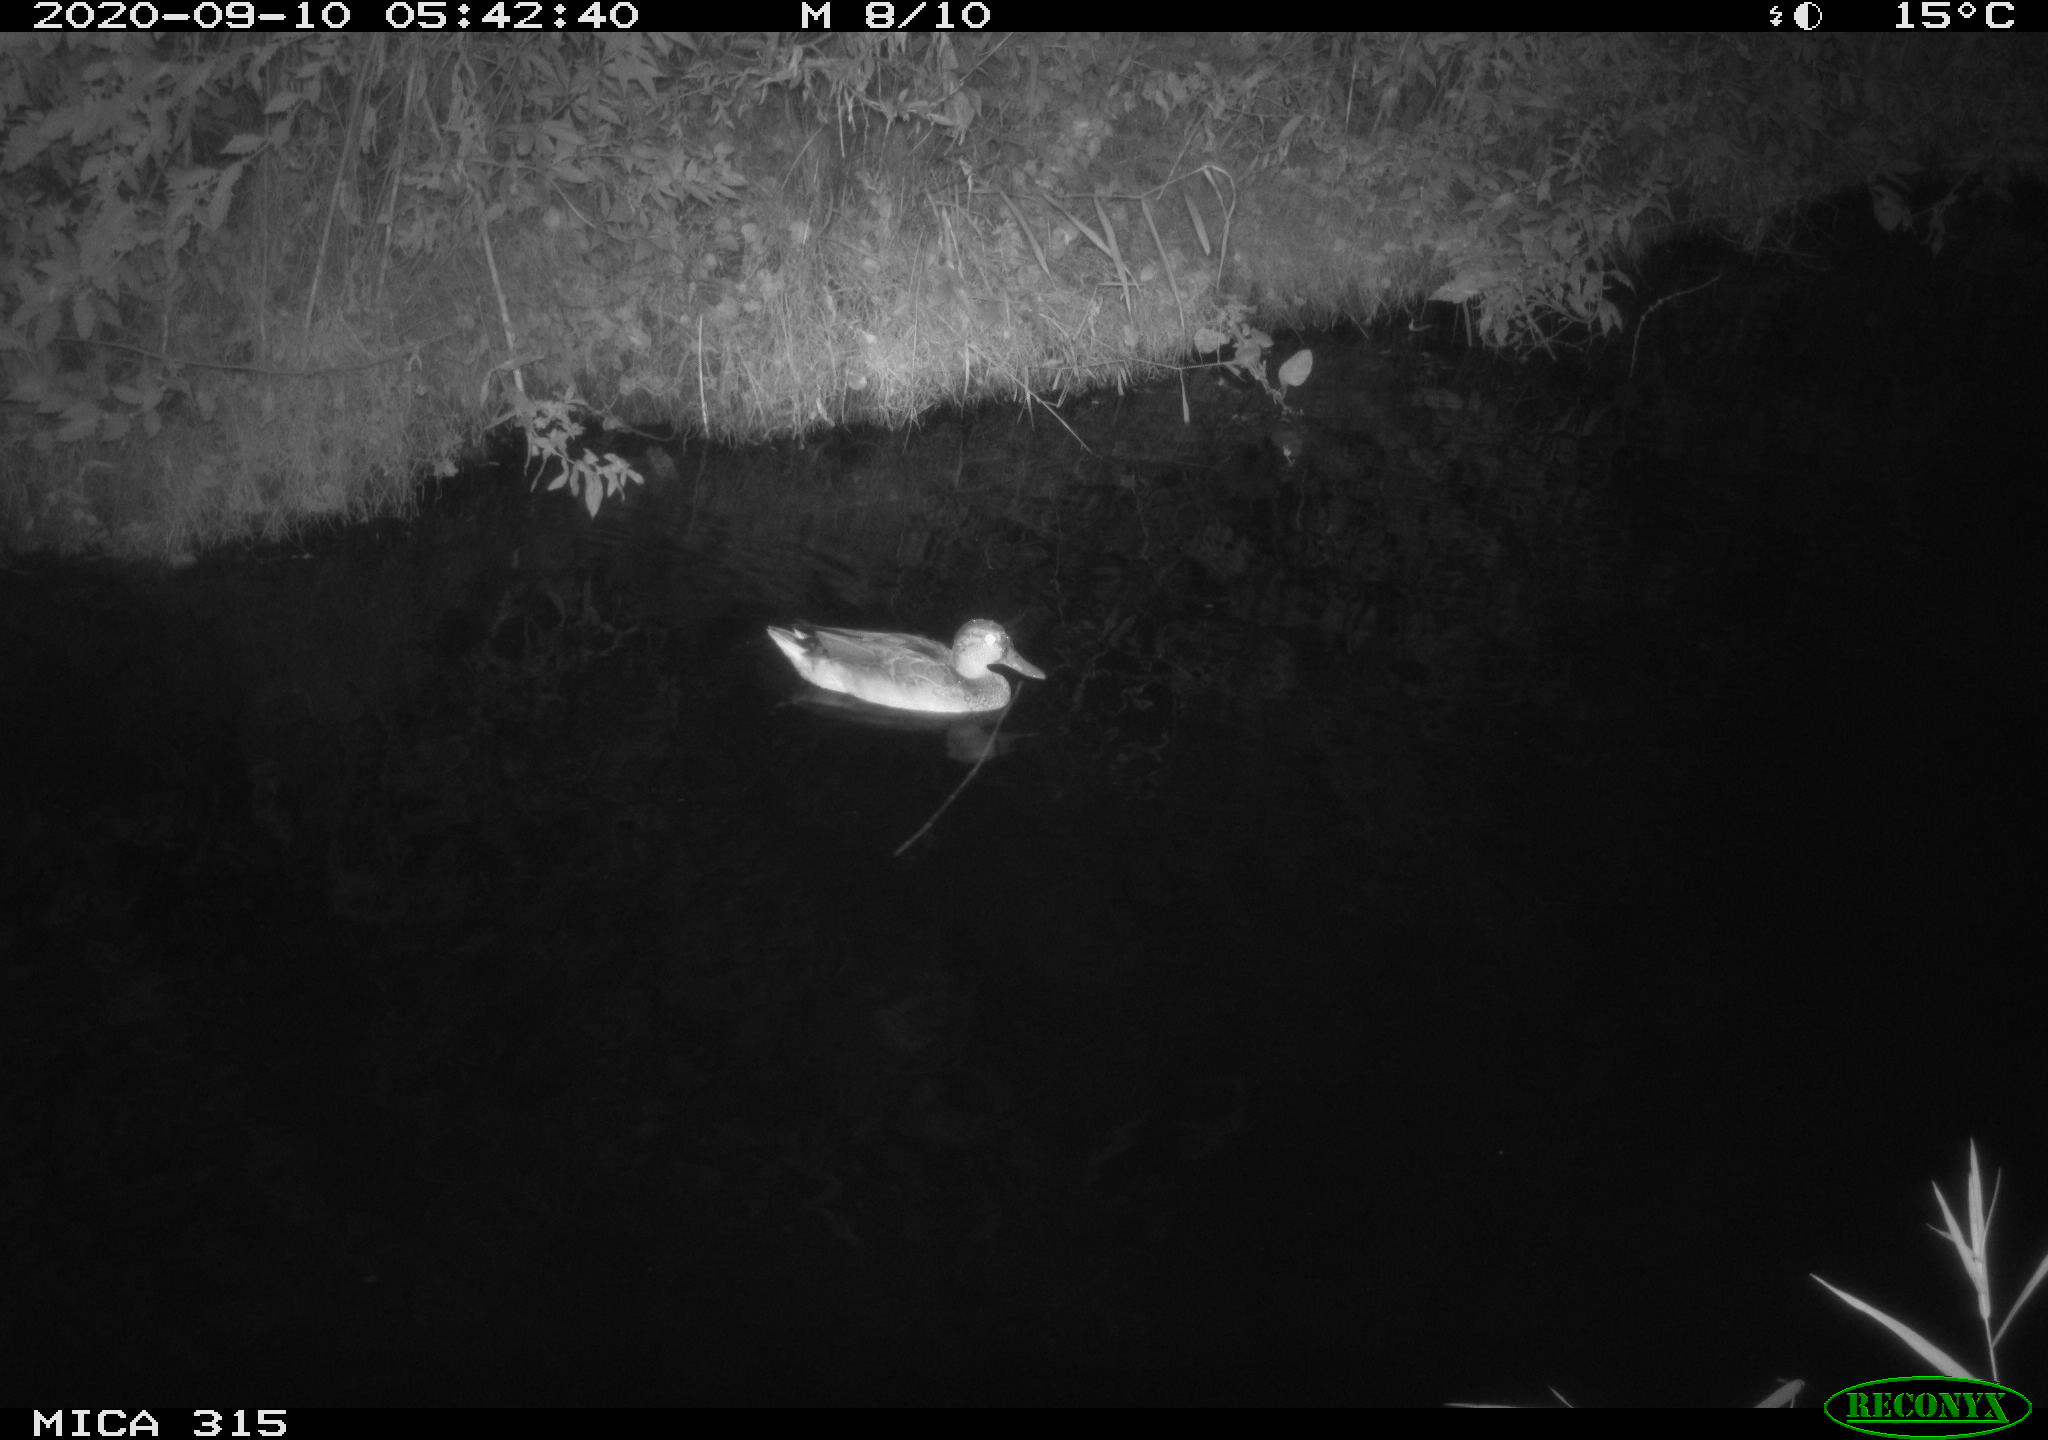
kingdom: Animalia
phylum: Chordata
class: Aves
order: Anseriformes
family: Anatidae
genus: Anas
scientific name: Anas platyrhynchos
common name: Mallard
